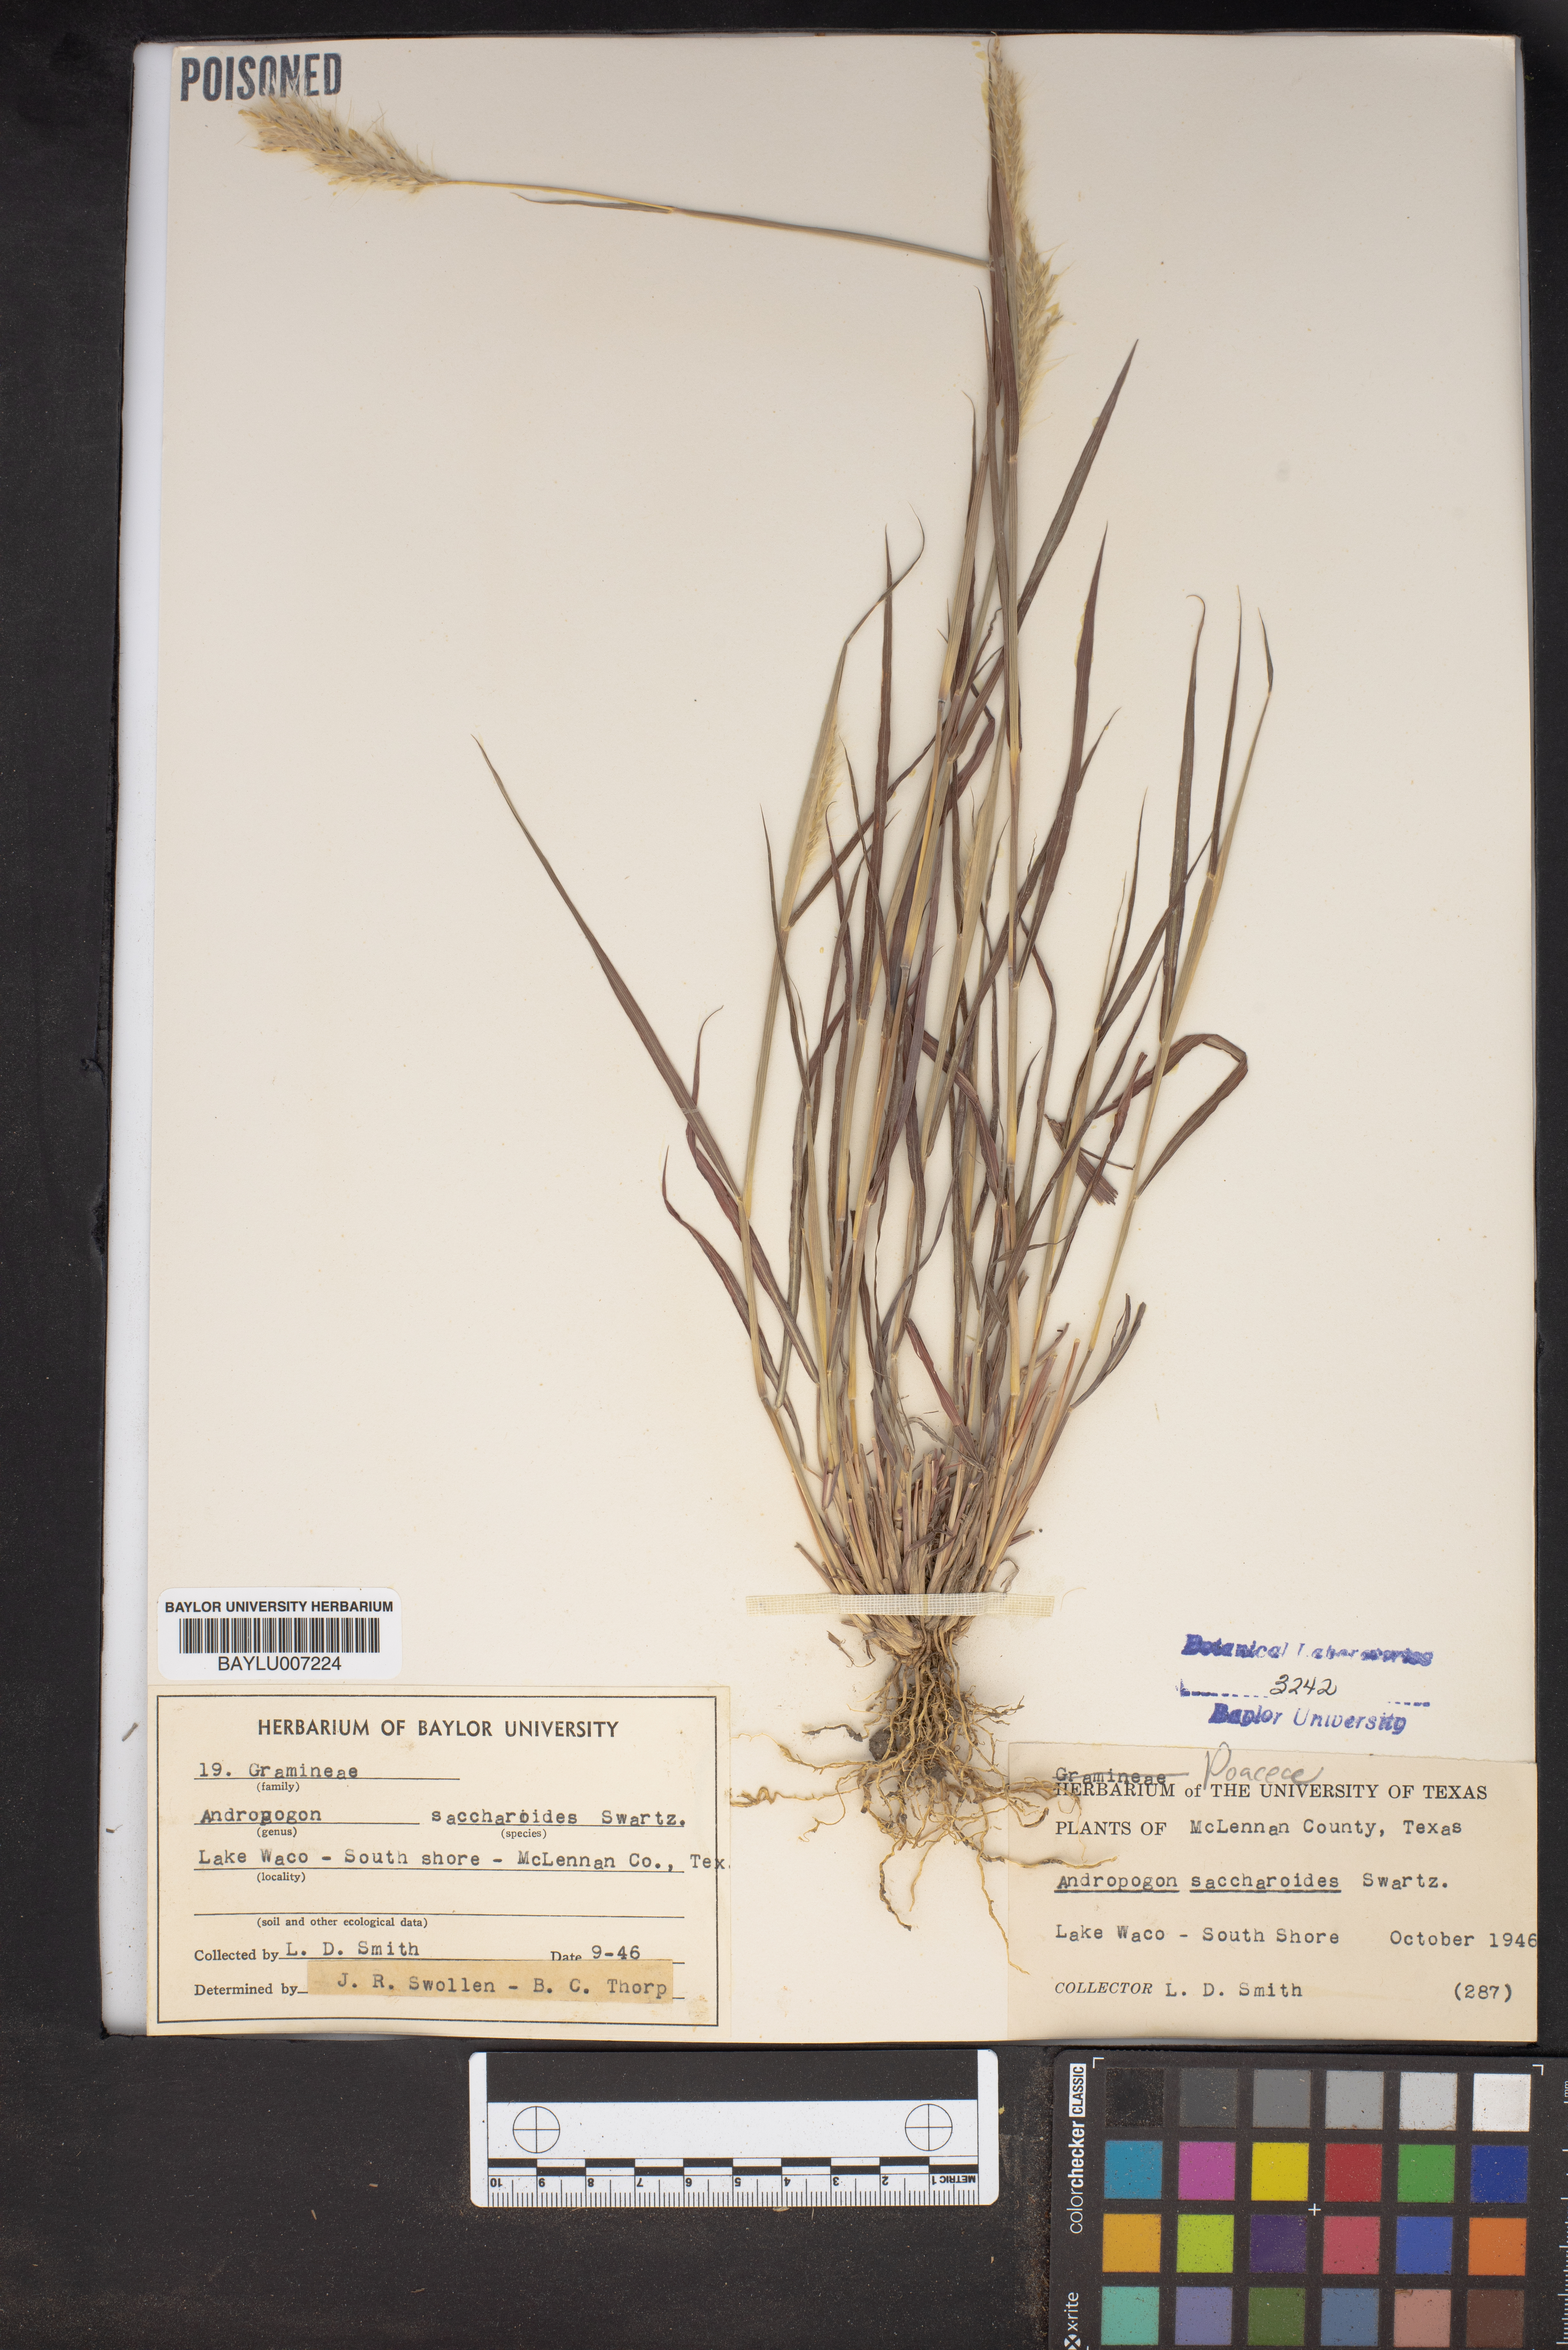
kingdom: Plantae
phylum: Tracheophyta
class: Liliopsida
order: Poales
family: Poaceae
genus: Bothriochloa
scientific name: Bothriochloa saccharoides
